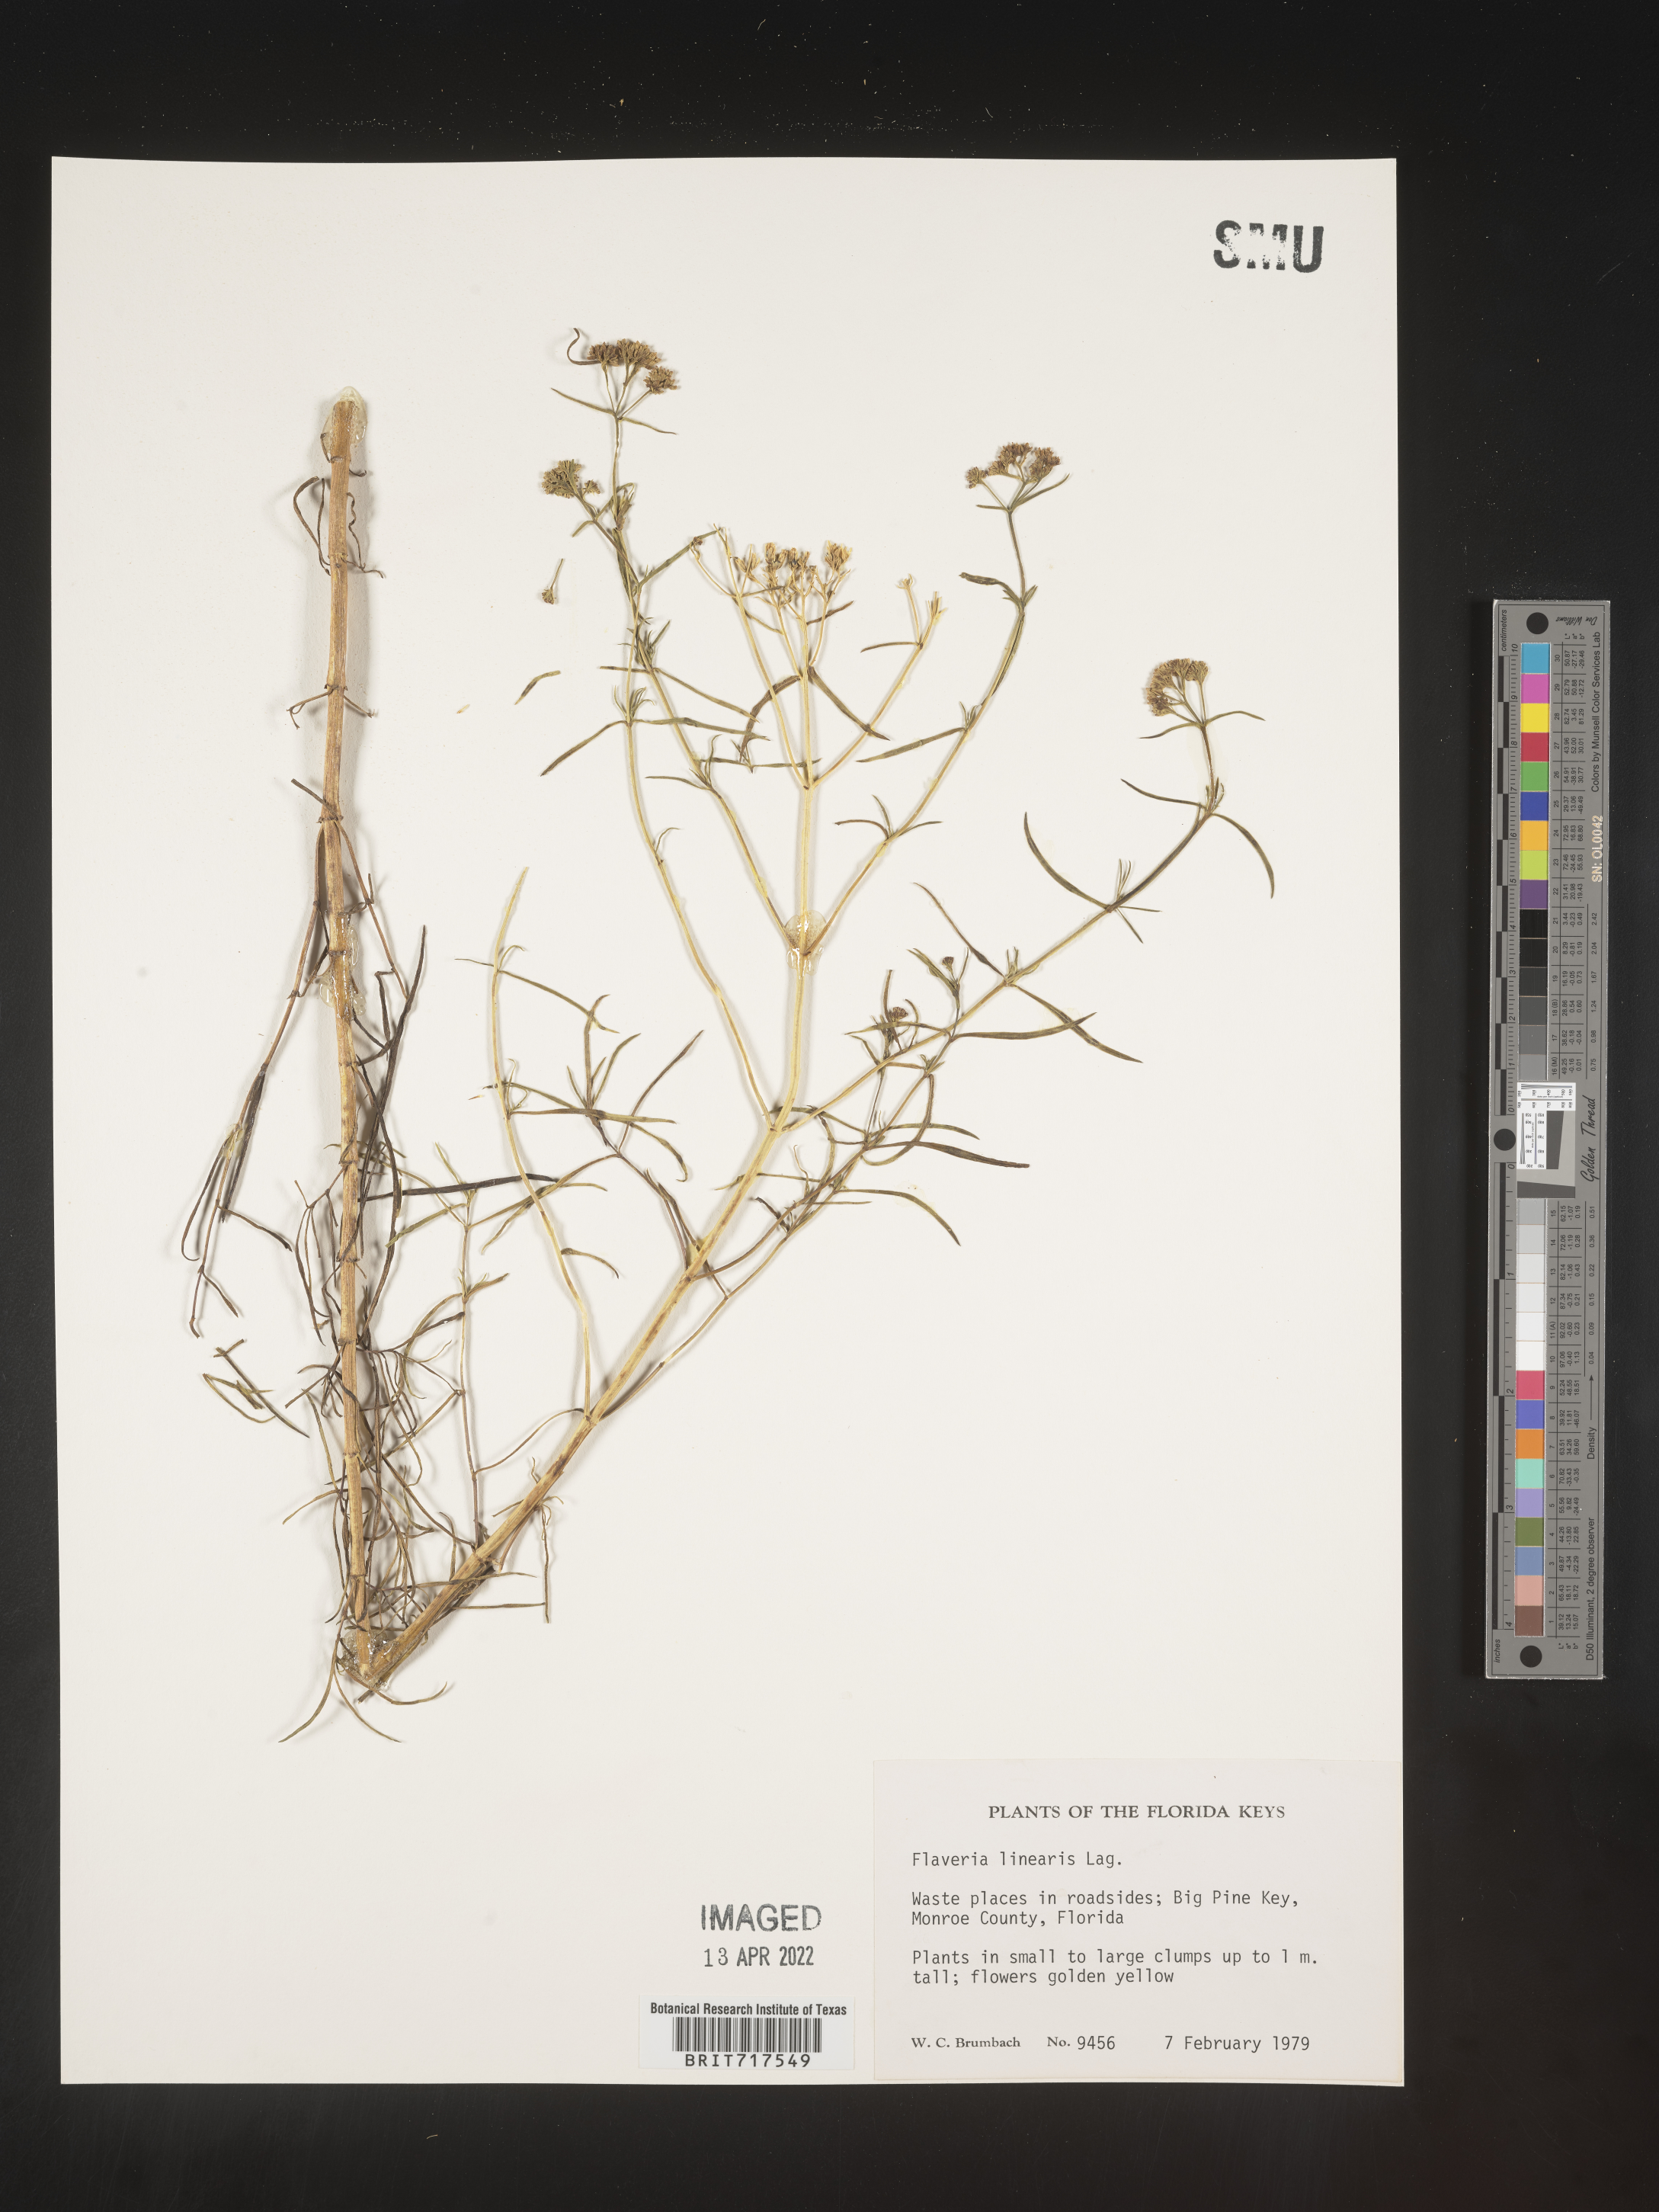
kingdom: Plantae
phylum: Tracheophyta
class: Magnoliopsida
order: Asterales
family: Asteraceae
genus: Flaveria
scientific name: Flaveria linearis
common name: Yellowtop
